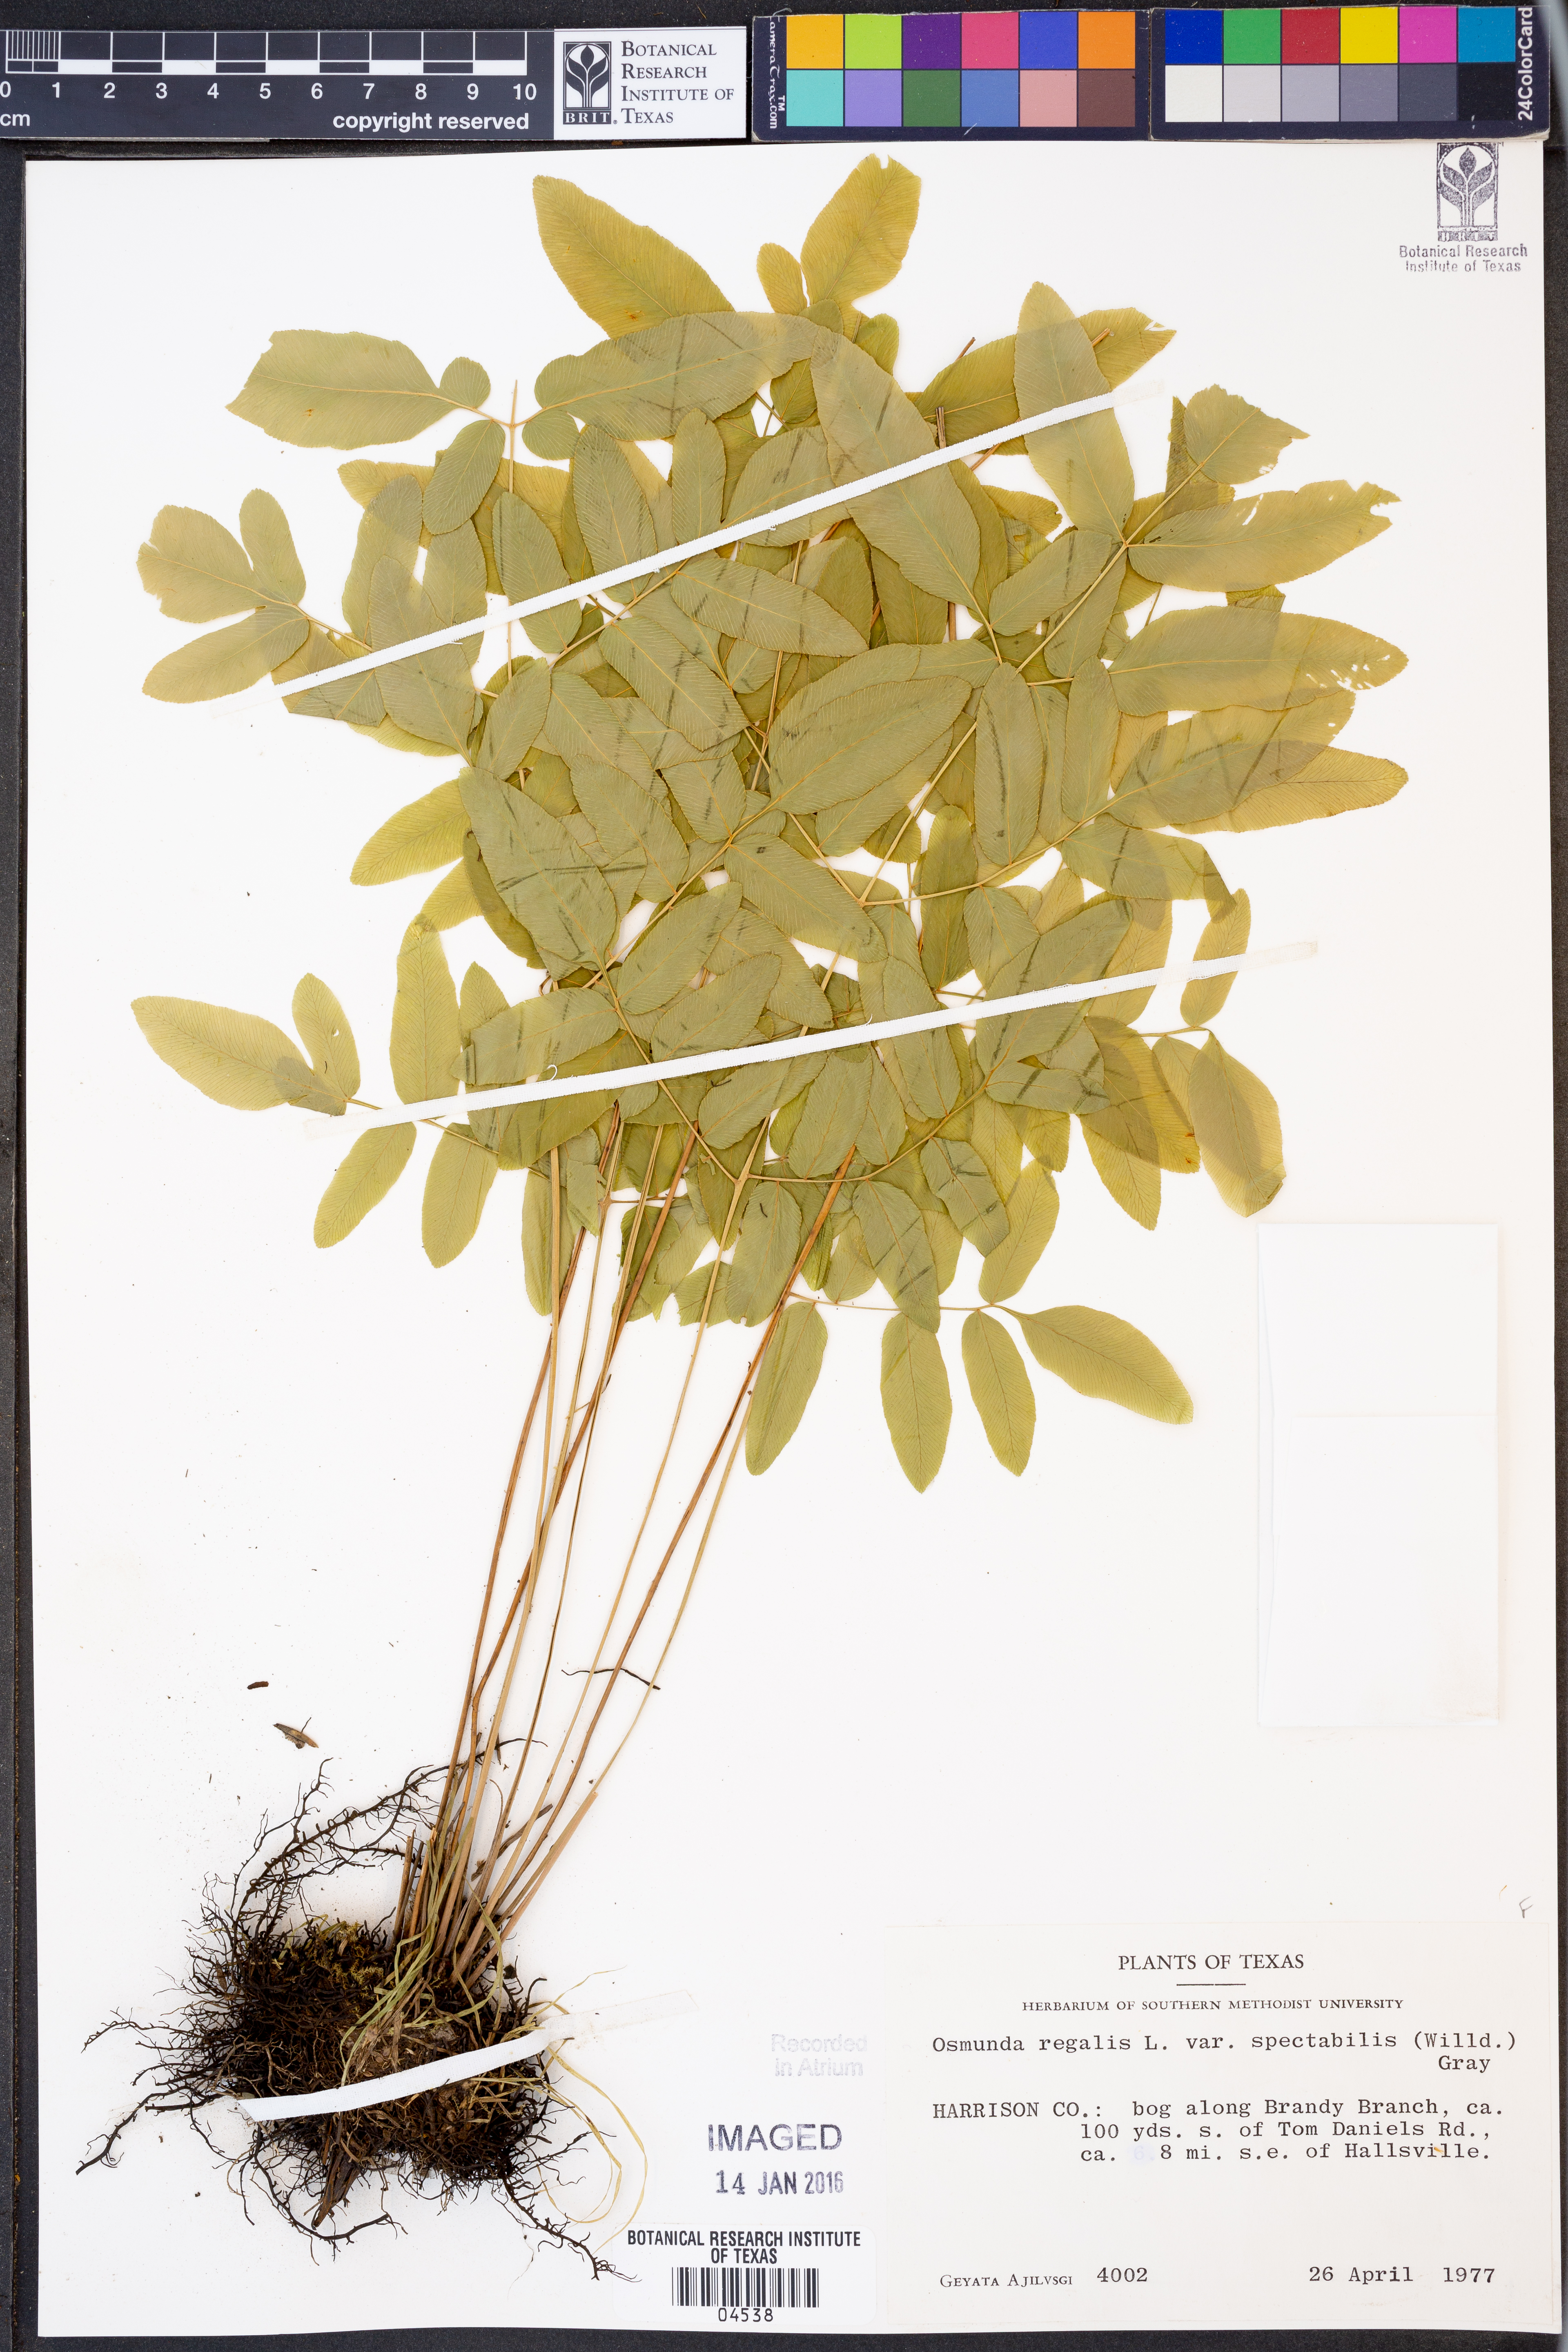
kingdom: Plantae
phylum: Tracheophyta
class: Polypodiopsida
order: Osmundales
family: Osmundaceae
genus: Osmunda
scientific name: Osmunda spectabilis
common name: American royal fern
